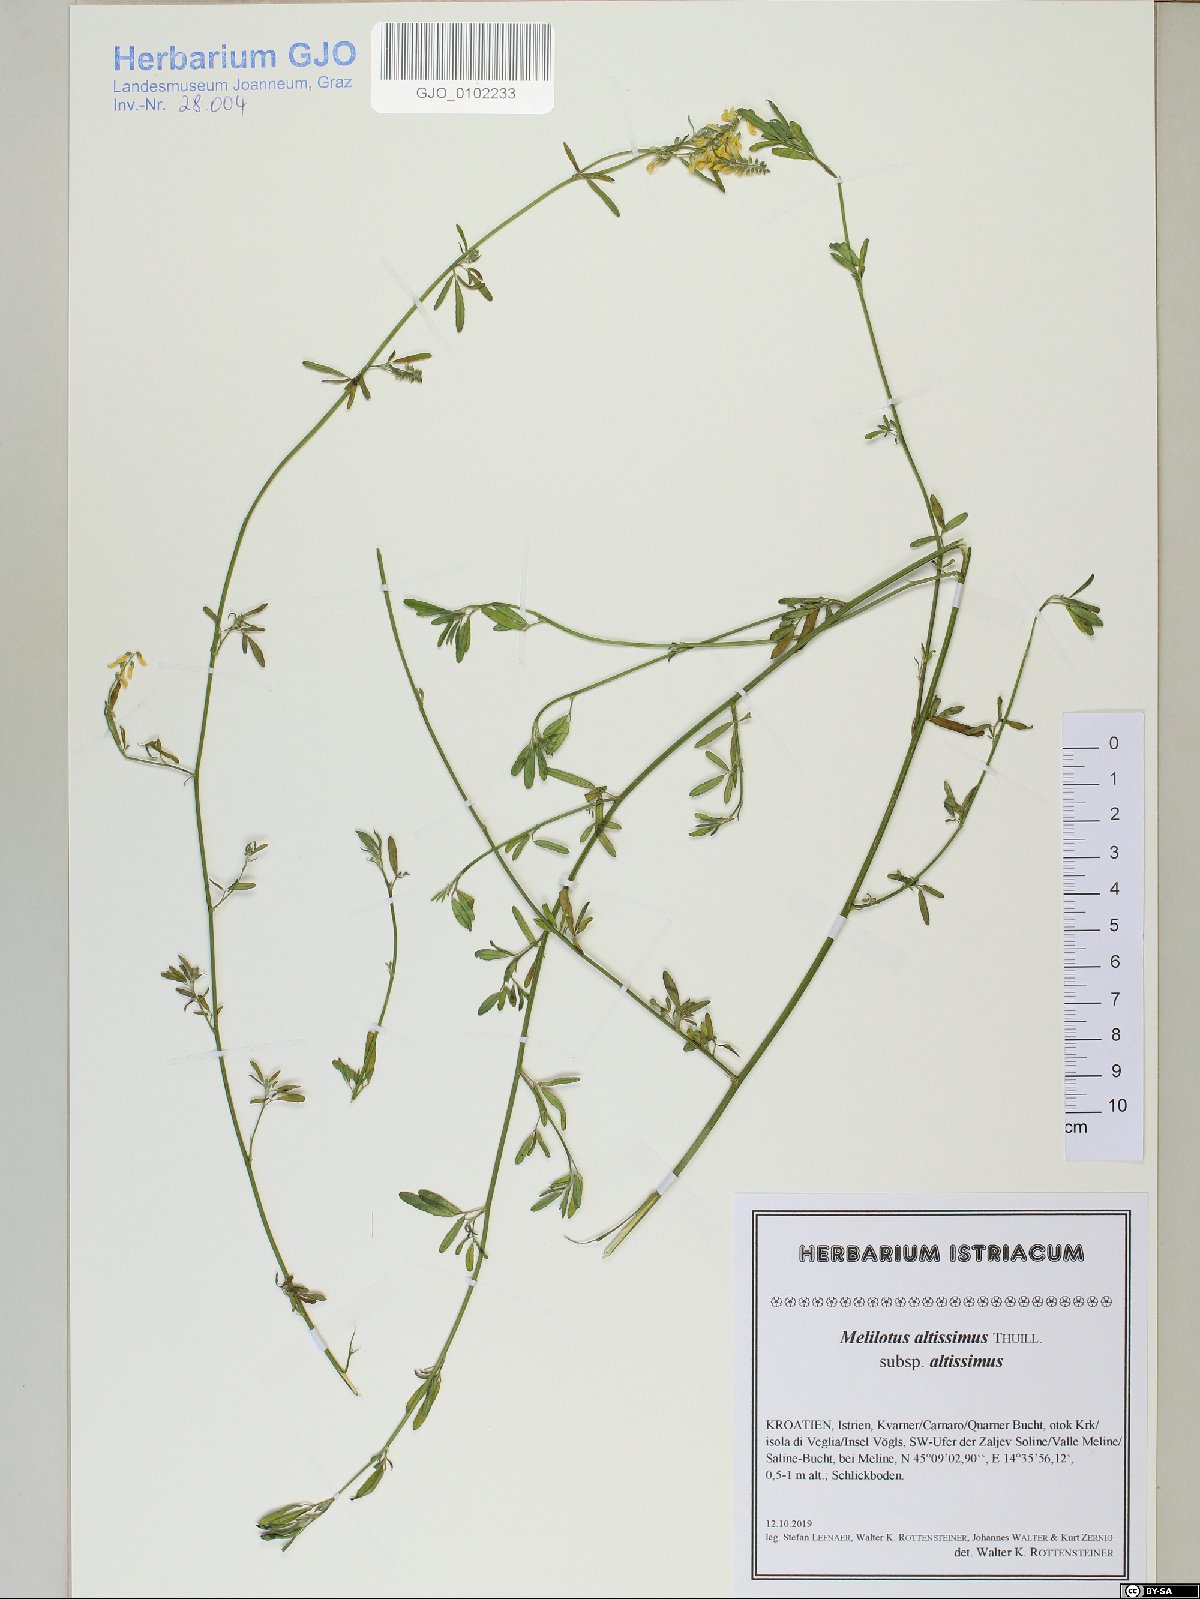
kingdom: Plantae
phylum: Tracheophyta
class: Magnoliopsida
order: Fabales
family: Fabaceae
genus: Melilotus
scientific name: Melilotus altissimus
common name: Tall melilot
